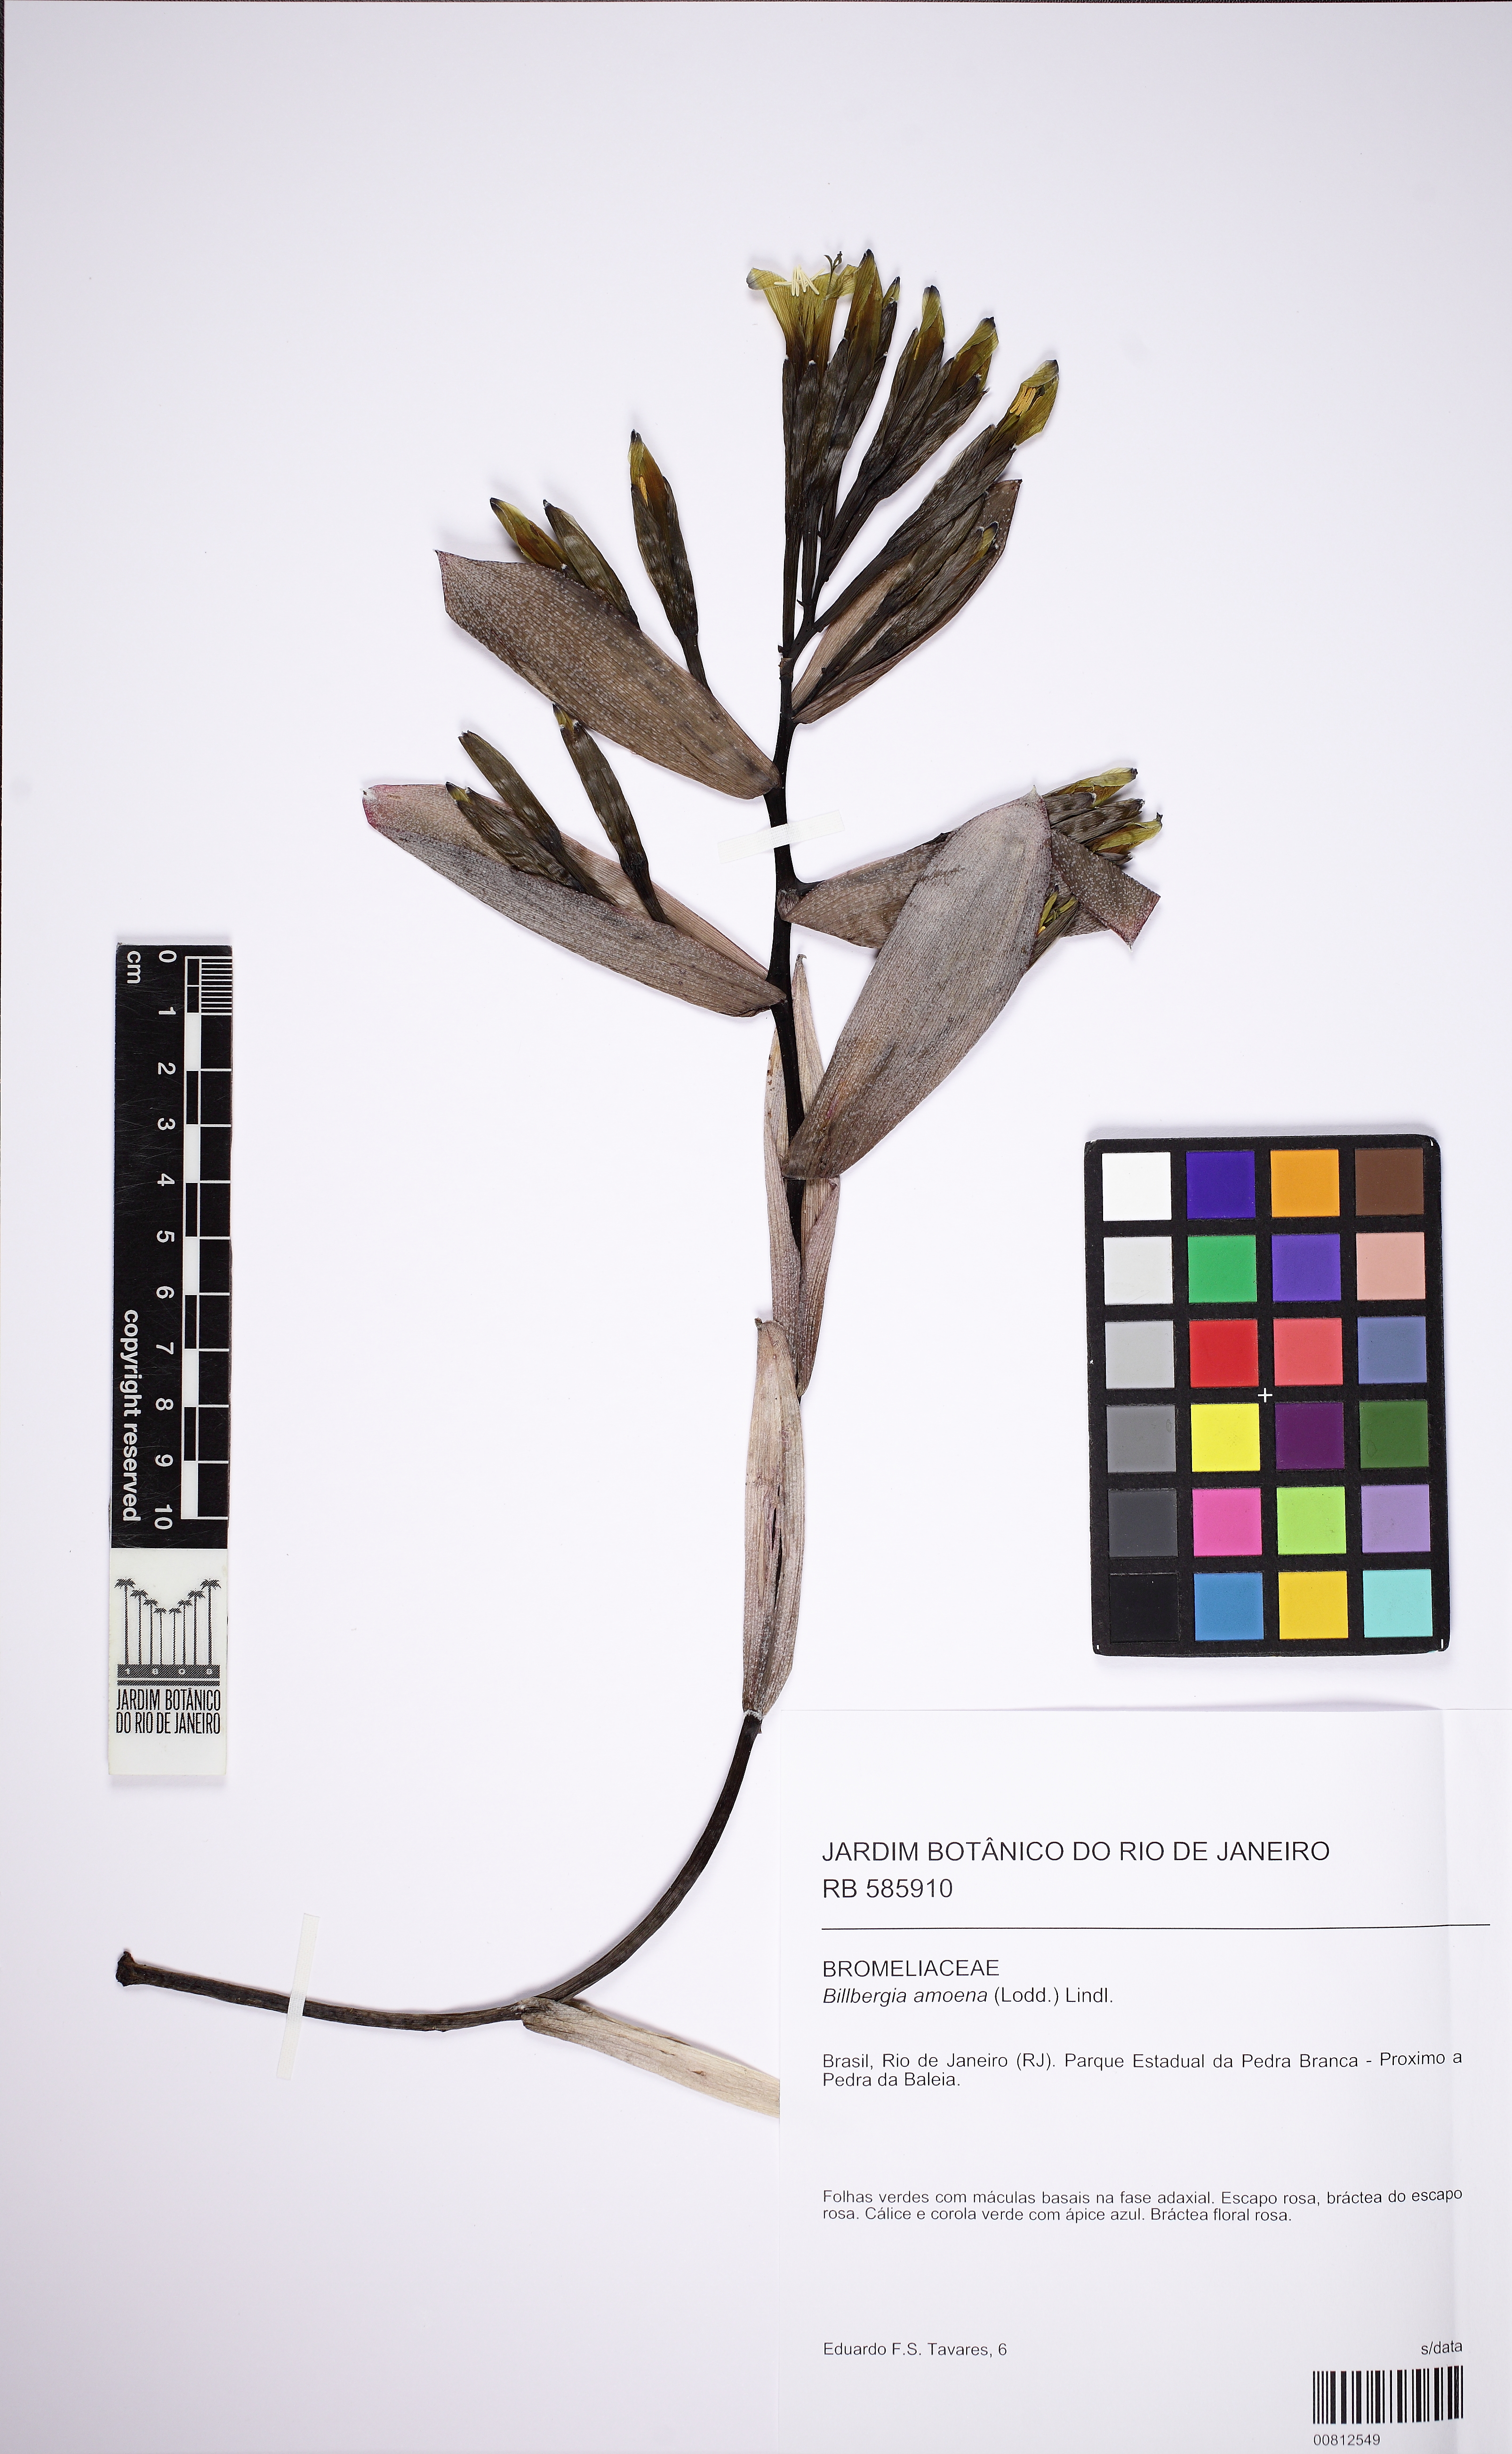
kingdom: Plantae
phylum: Tracheophyta
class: Liliopsida
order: Poales
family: Bromeliaceae
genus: Billbergia
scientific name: Billbergia amoena
